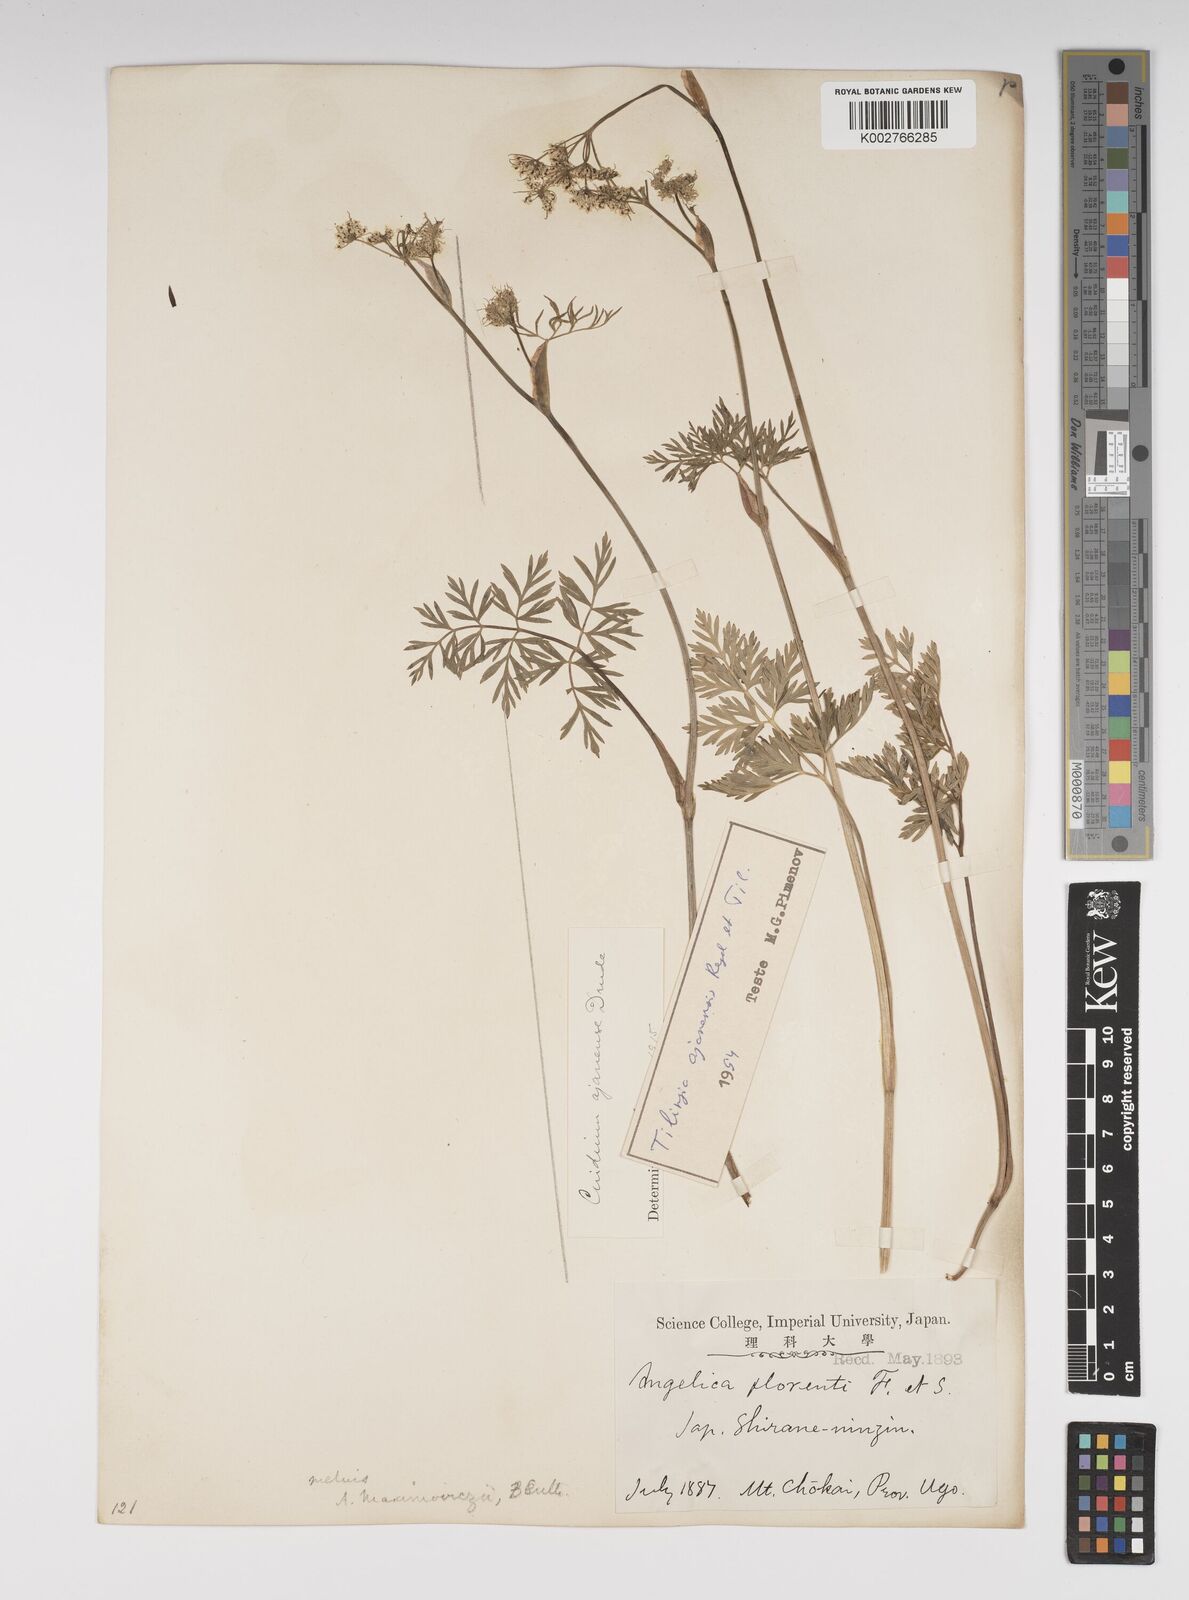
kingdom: Plantae
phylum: Tracheophyta
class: Magnoliopsida
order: Apiales
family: Apiaceae
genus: Ostericum
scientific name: Ostericum florenti
